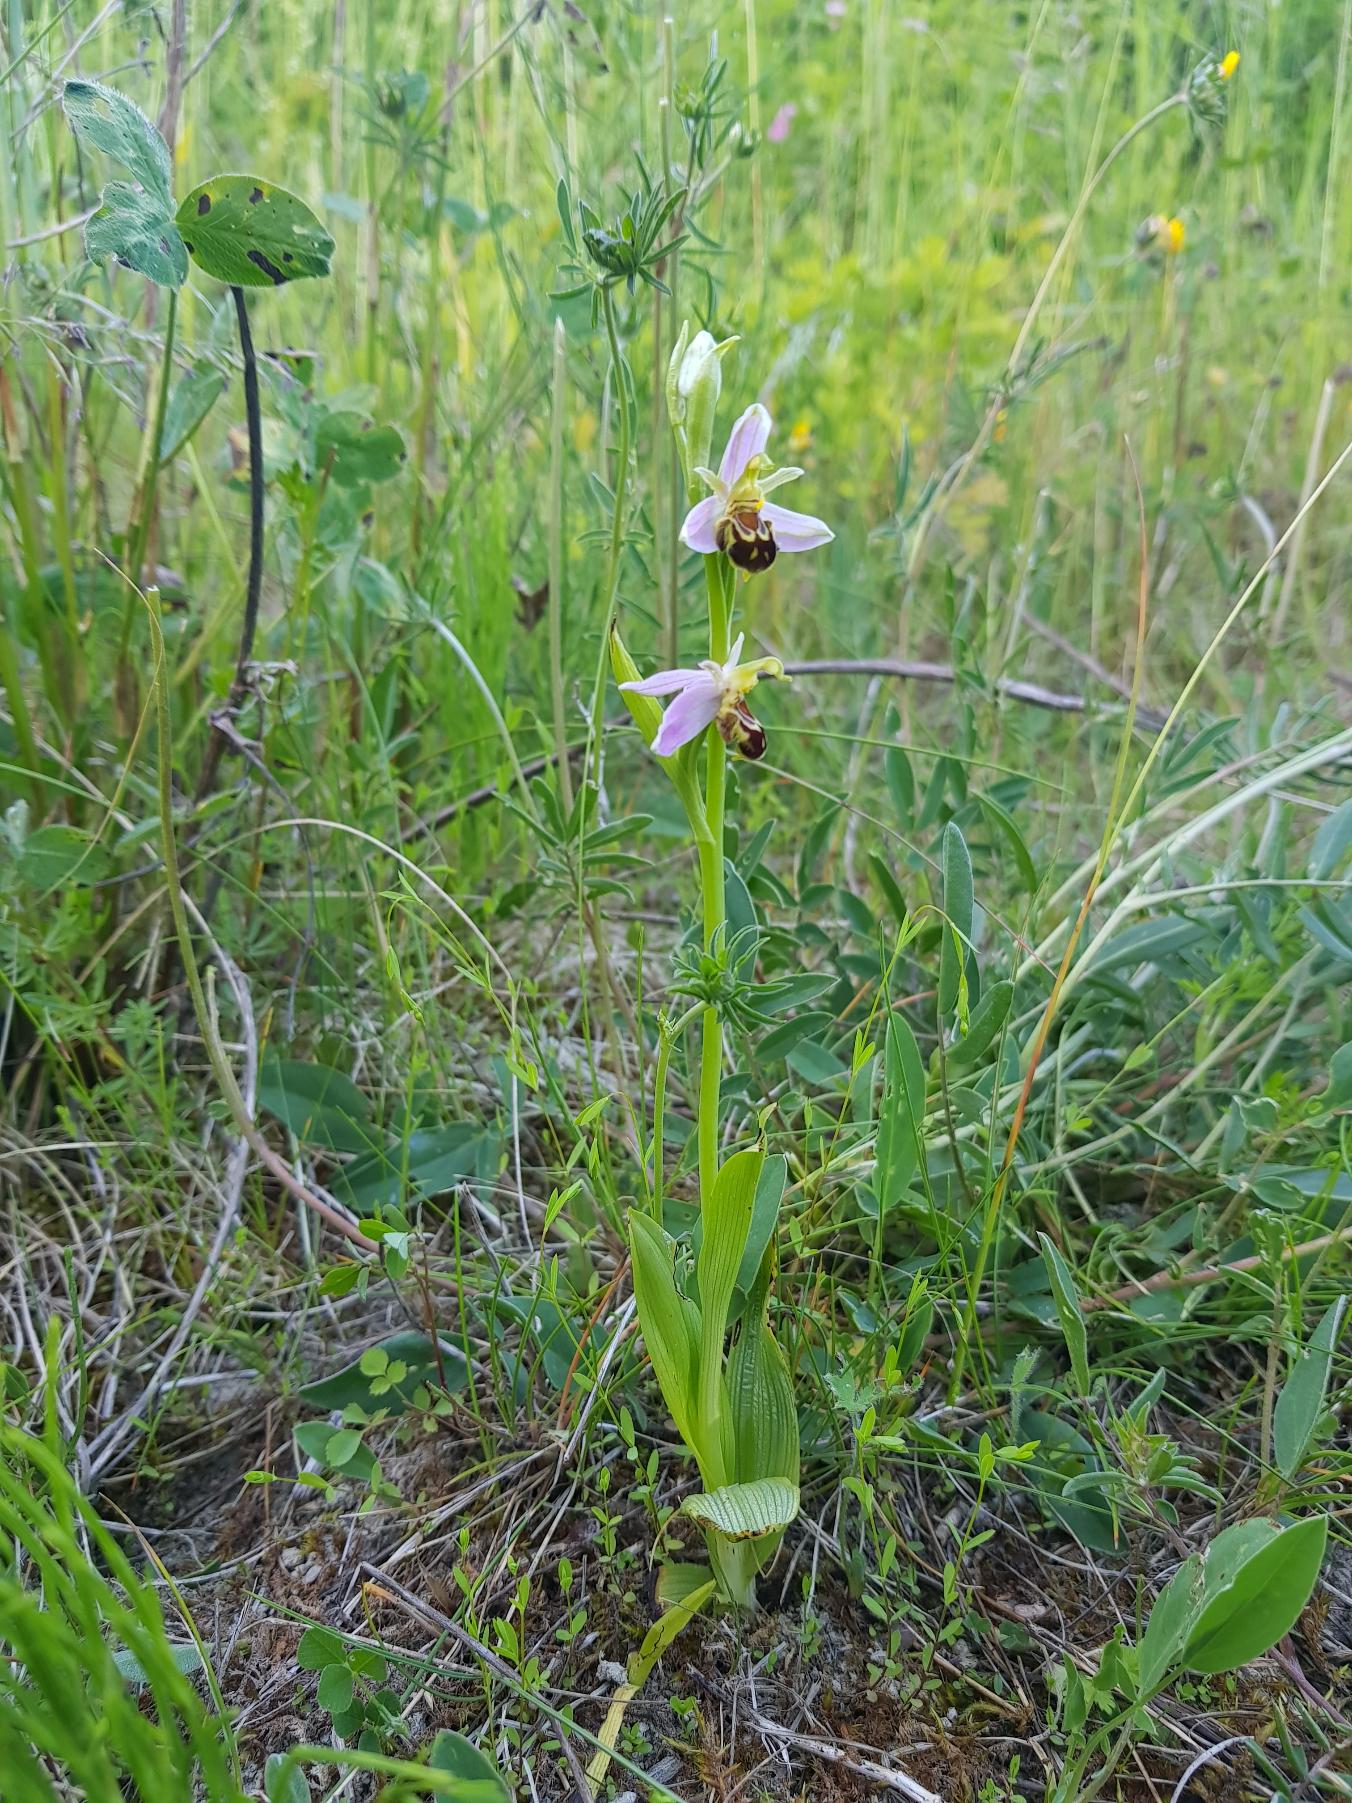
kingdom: Plantae
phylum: Tracheophyta
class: Liliopsida
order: Asparagales
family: Orchidaceae
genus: Ophrys
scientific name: Ophrys apifera
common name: Biblomst
